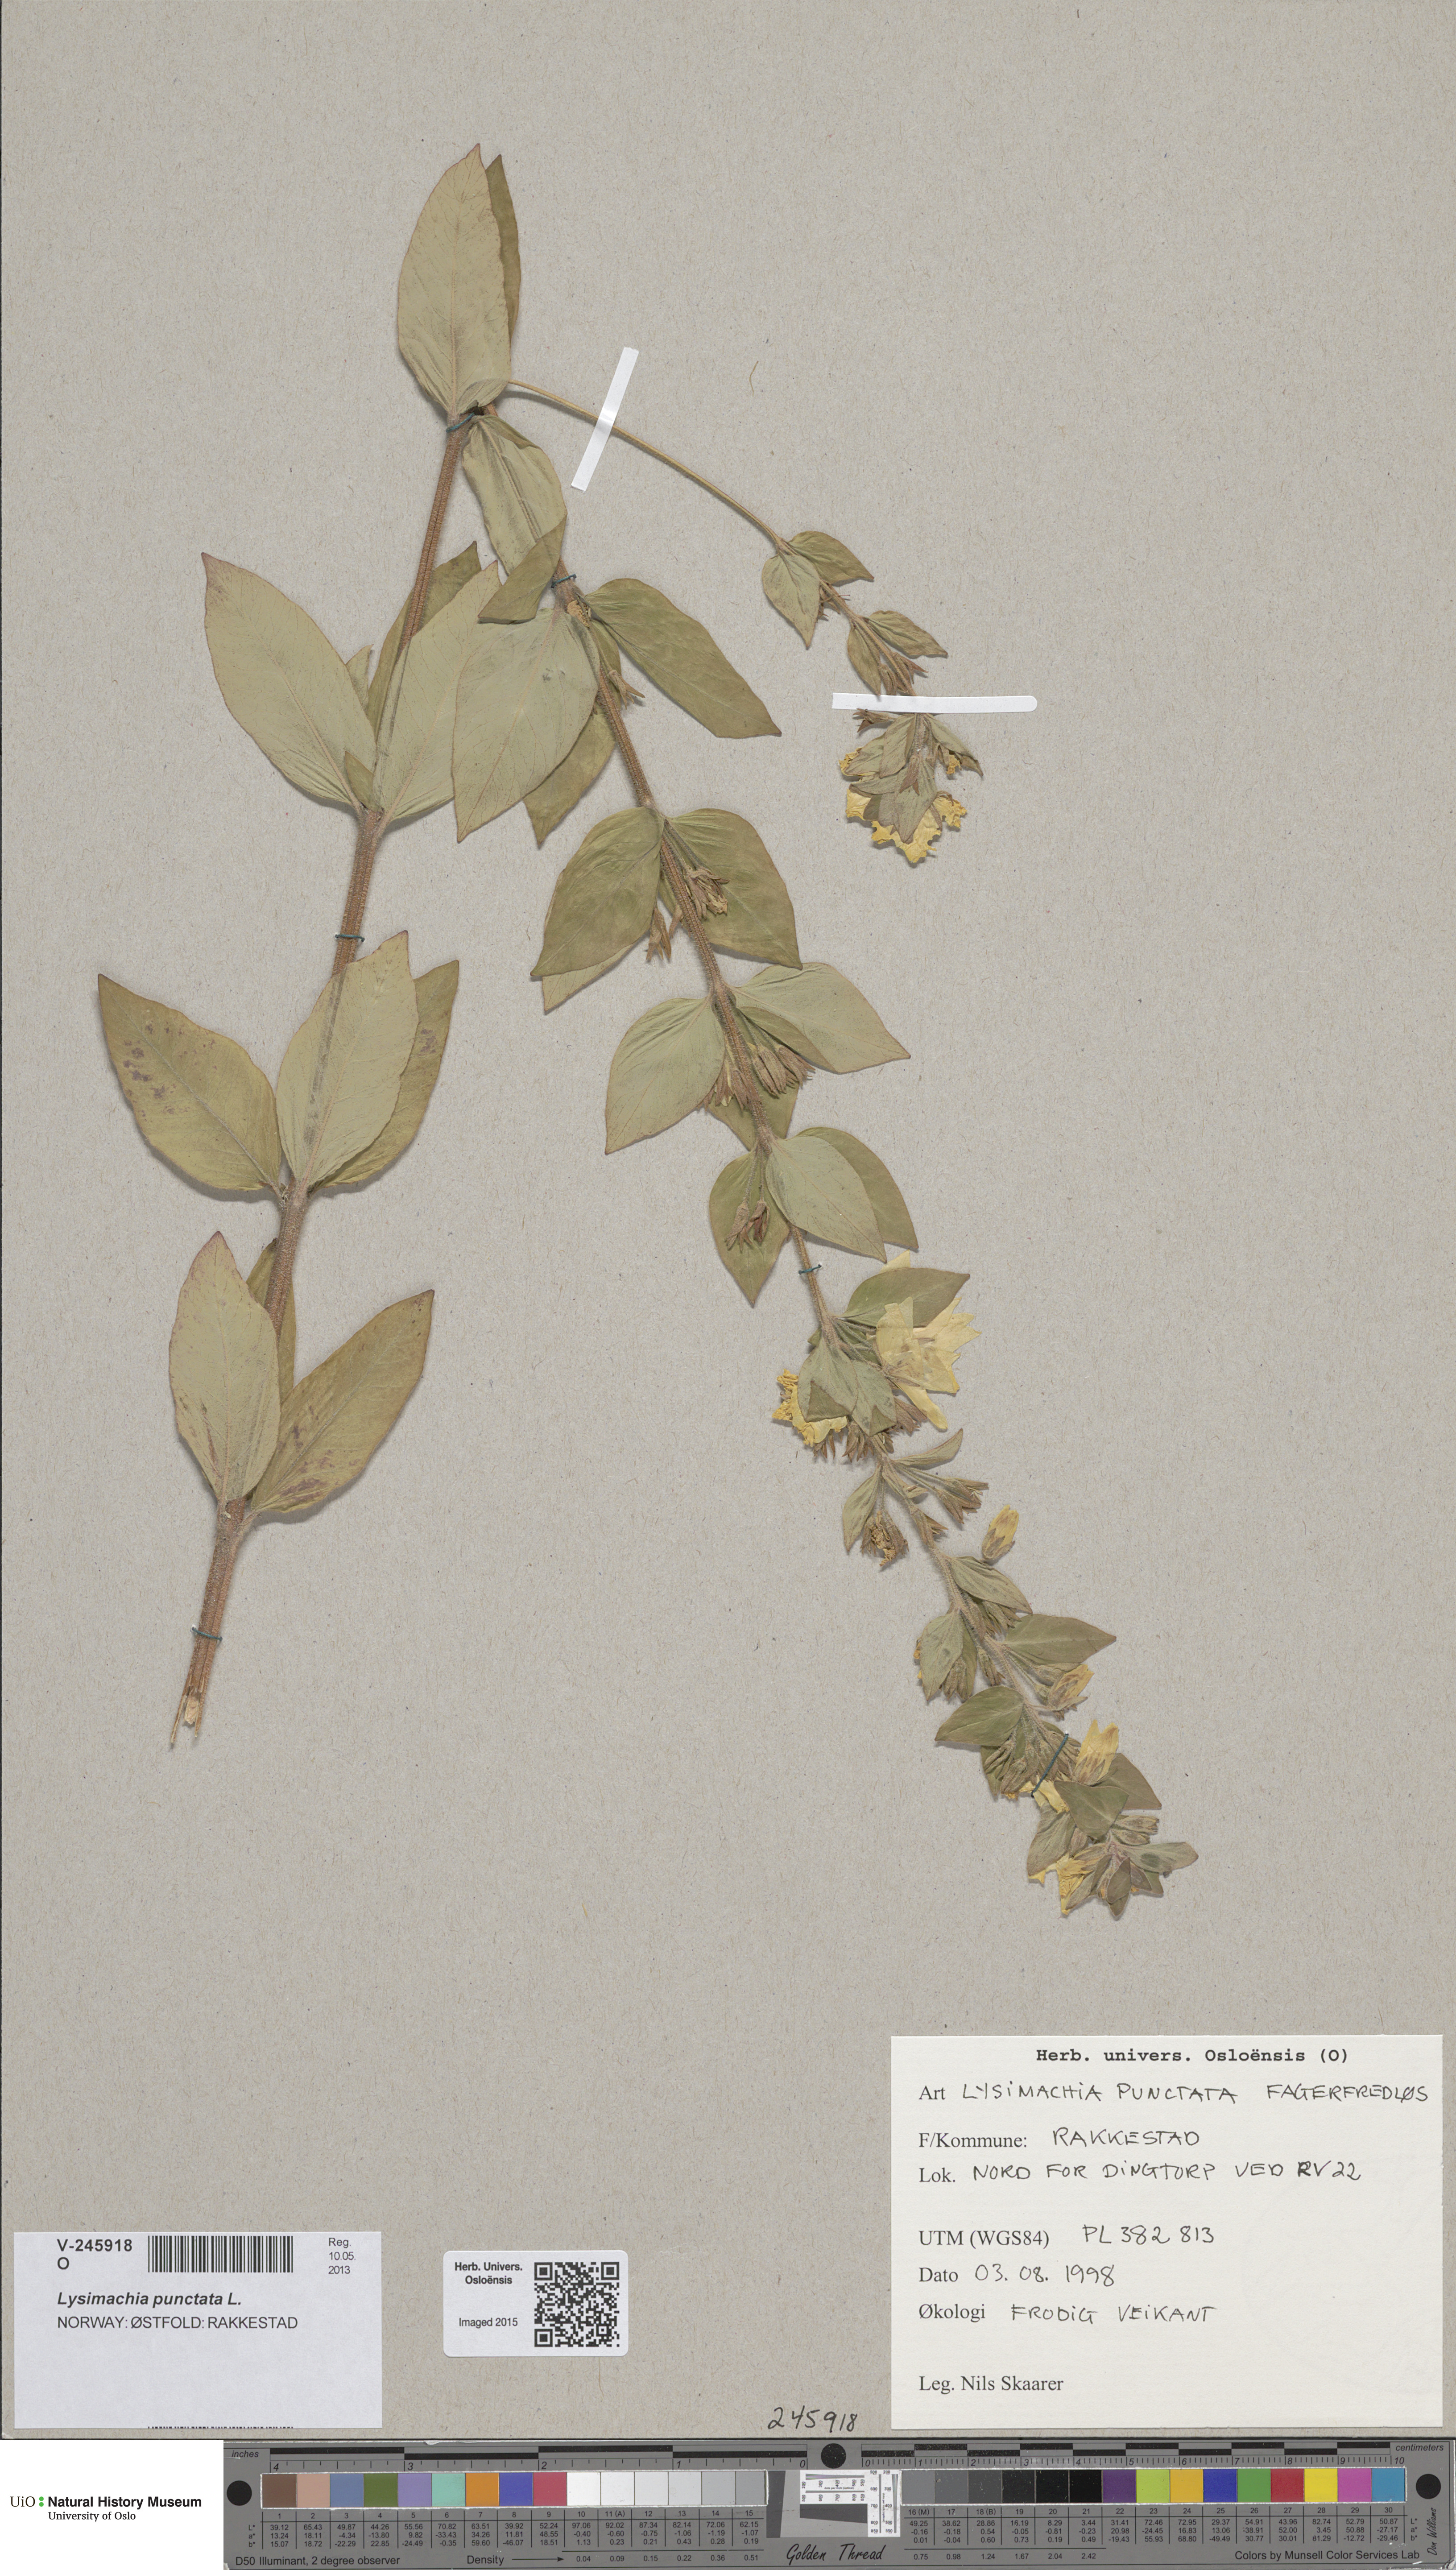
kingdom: Plantae
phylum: Tracheophyta
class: Magnoliopsida
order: Ericales
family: Primulaceae
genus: Lysimachia
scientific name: Lysimachia punctata
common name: Dotted loosestrife
